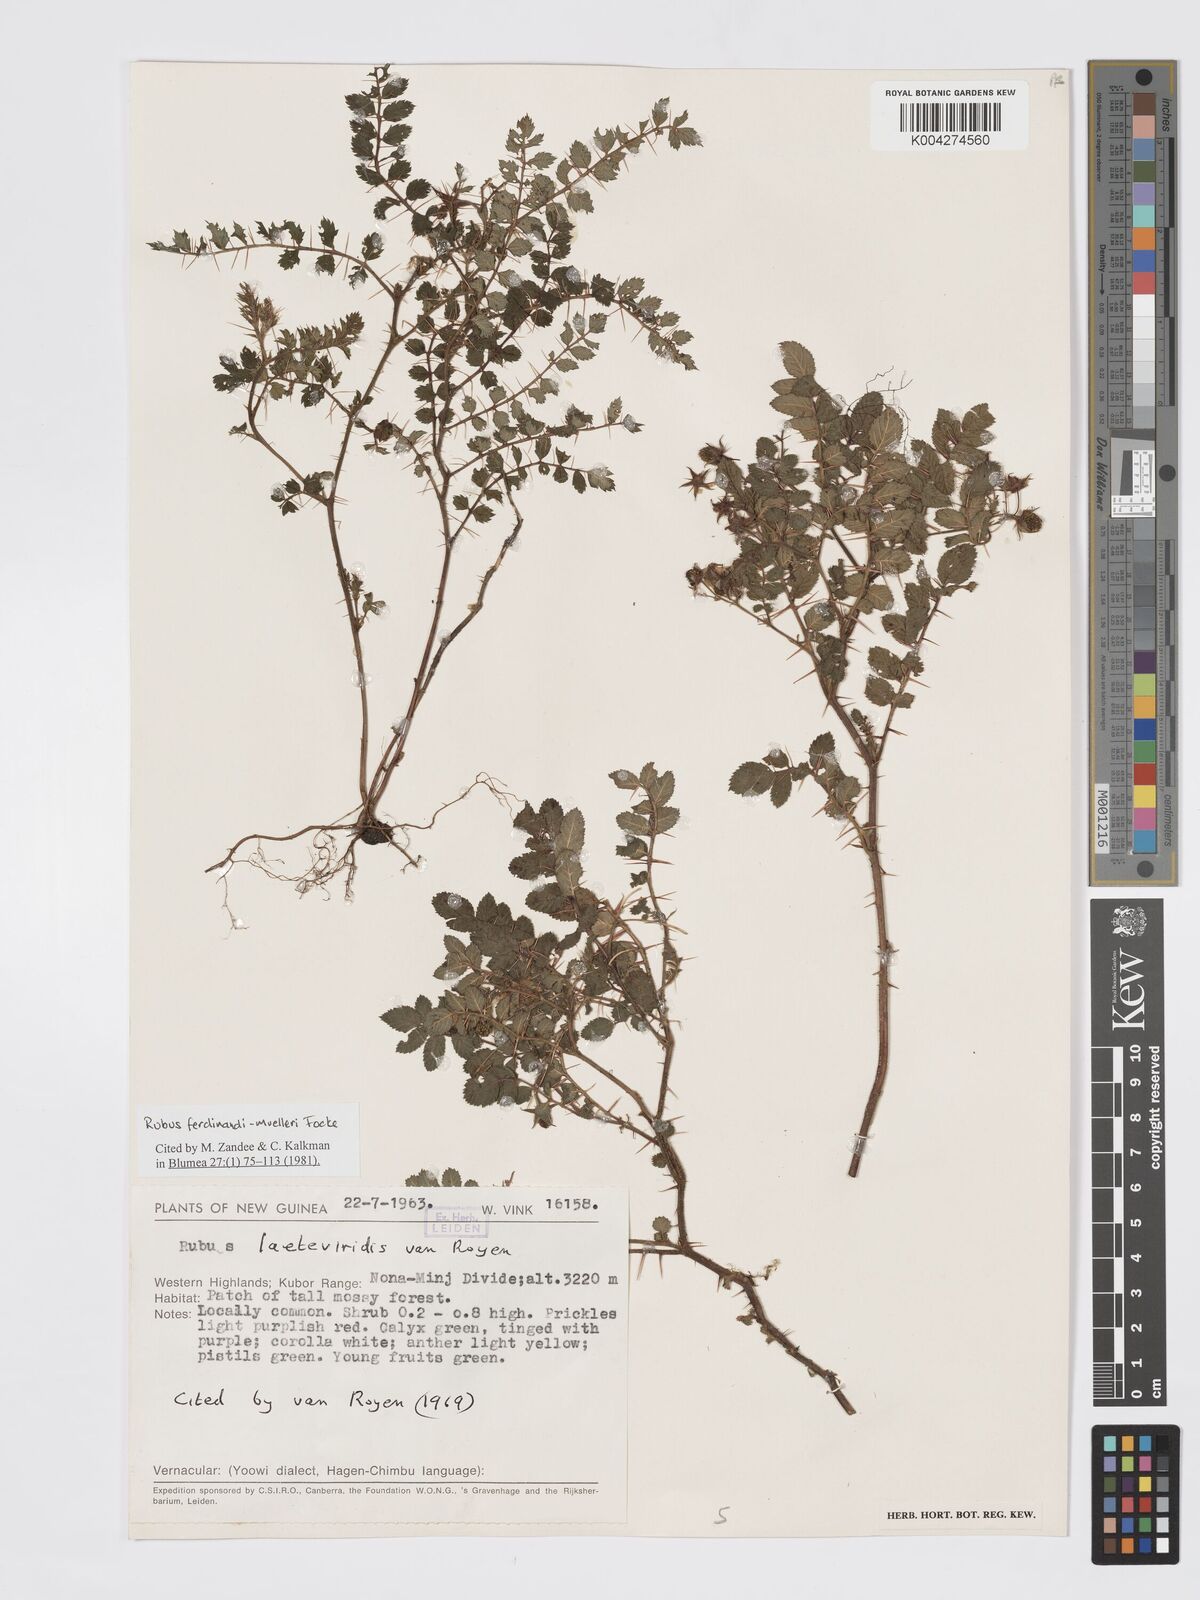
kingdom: Plantae
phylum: Tracheophyta
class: Magnoliopsida
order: Rosales
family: Rosaceae
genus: Rubus
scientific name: Rubus ferdinandimuelleri
